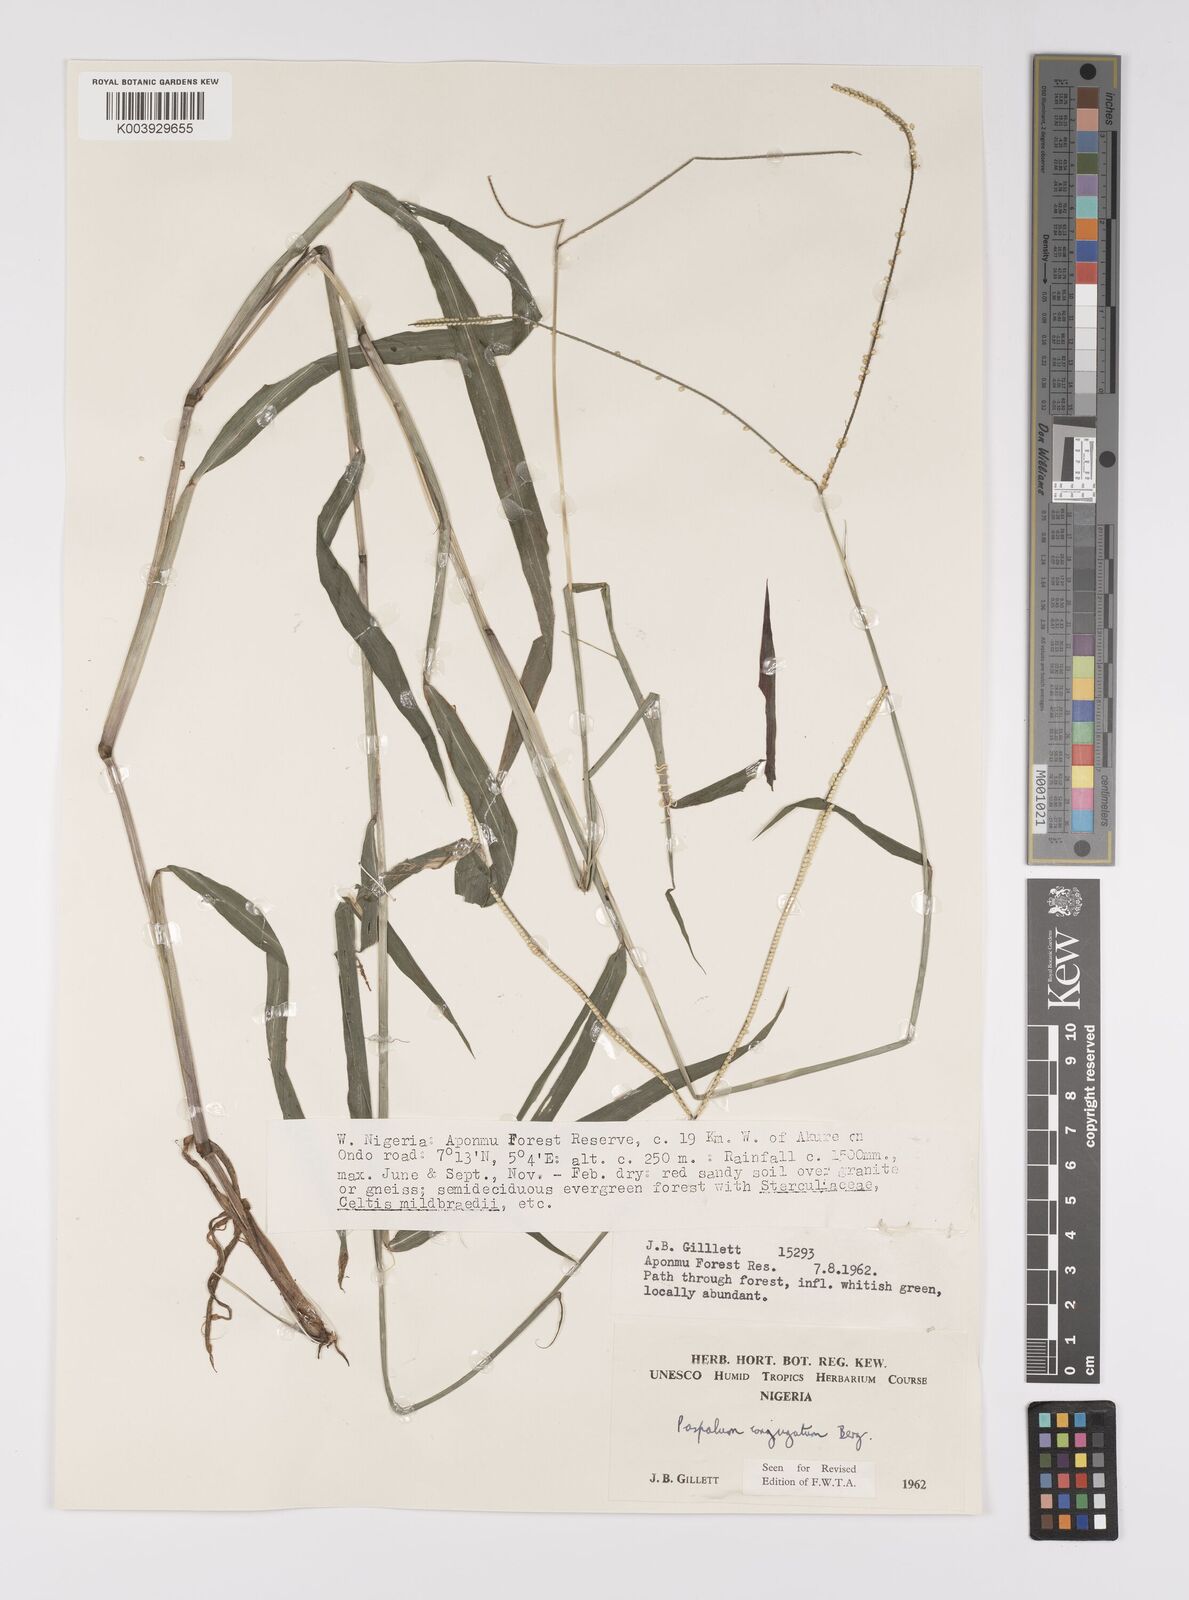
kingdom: Plantae
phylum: Tracheophyta
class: Liliopsida
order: Poales
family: Poaceae
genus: Paspalum
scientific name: Paspalum conjugatum
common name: Hilograss
